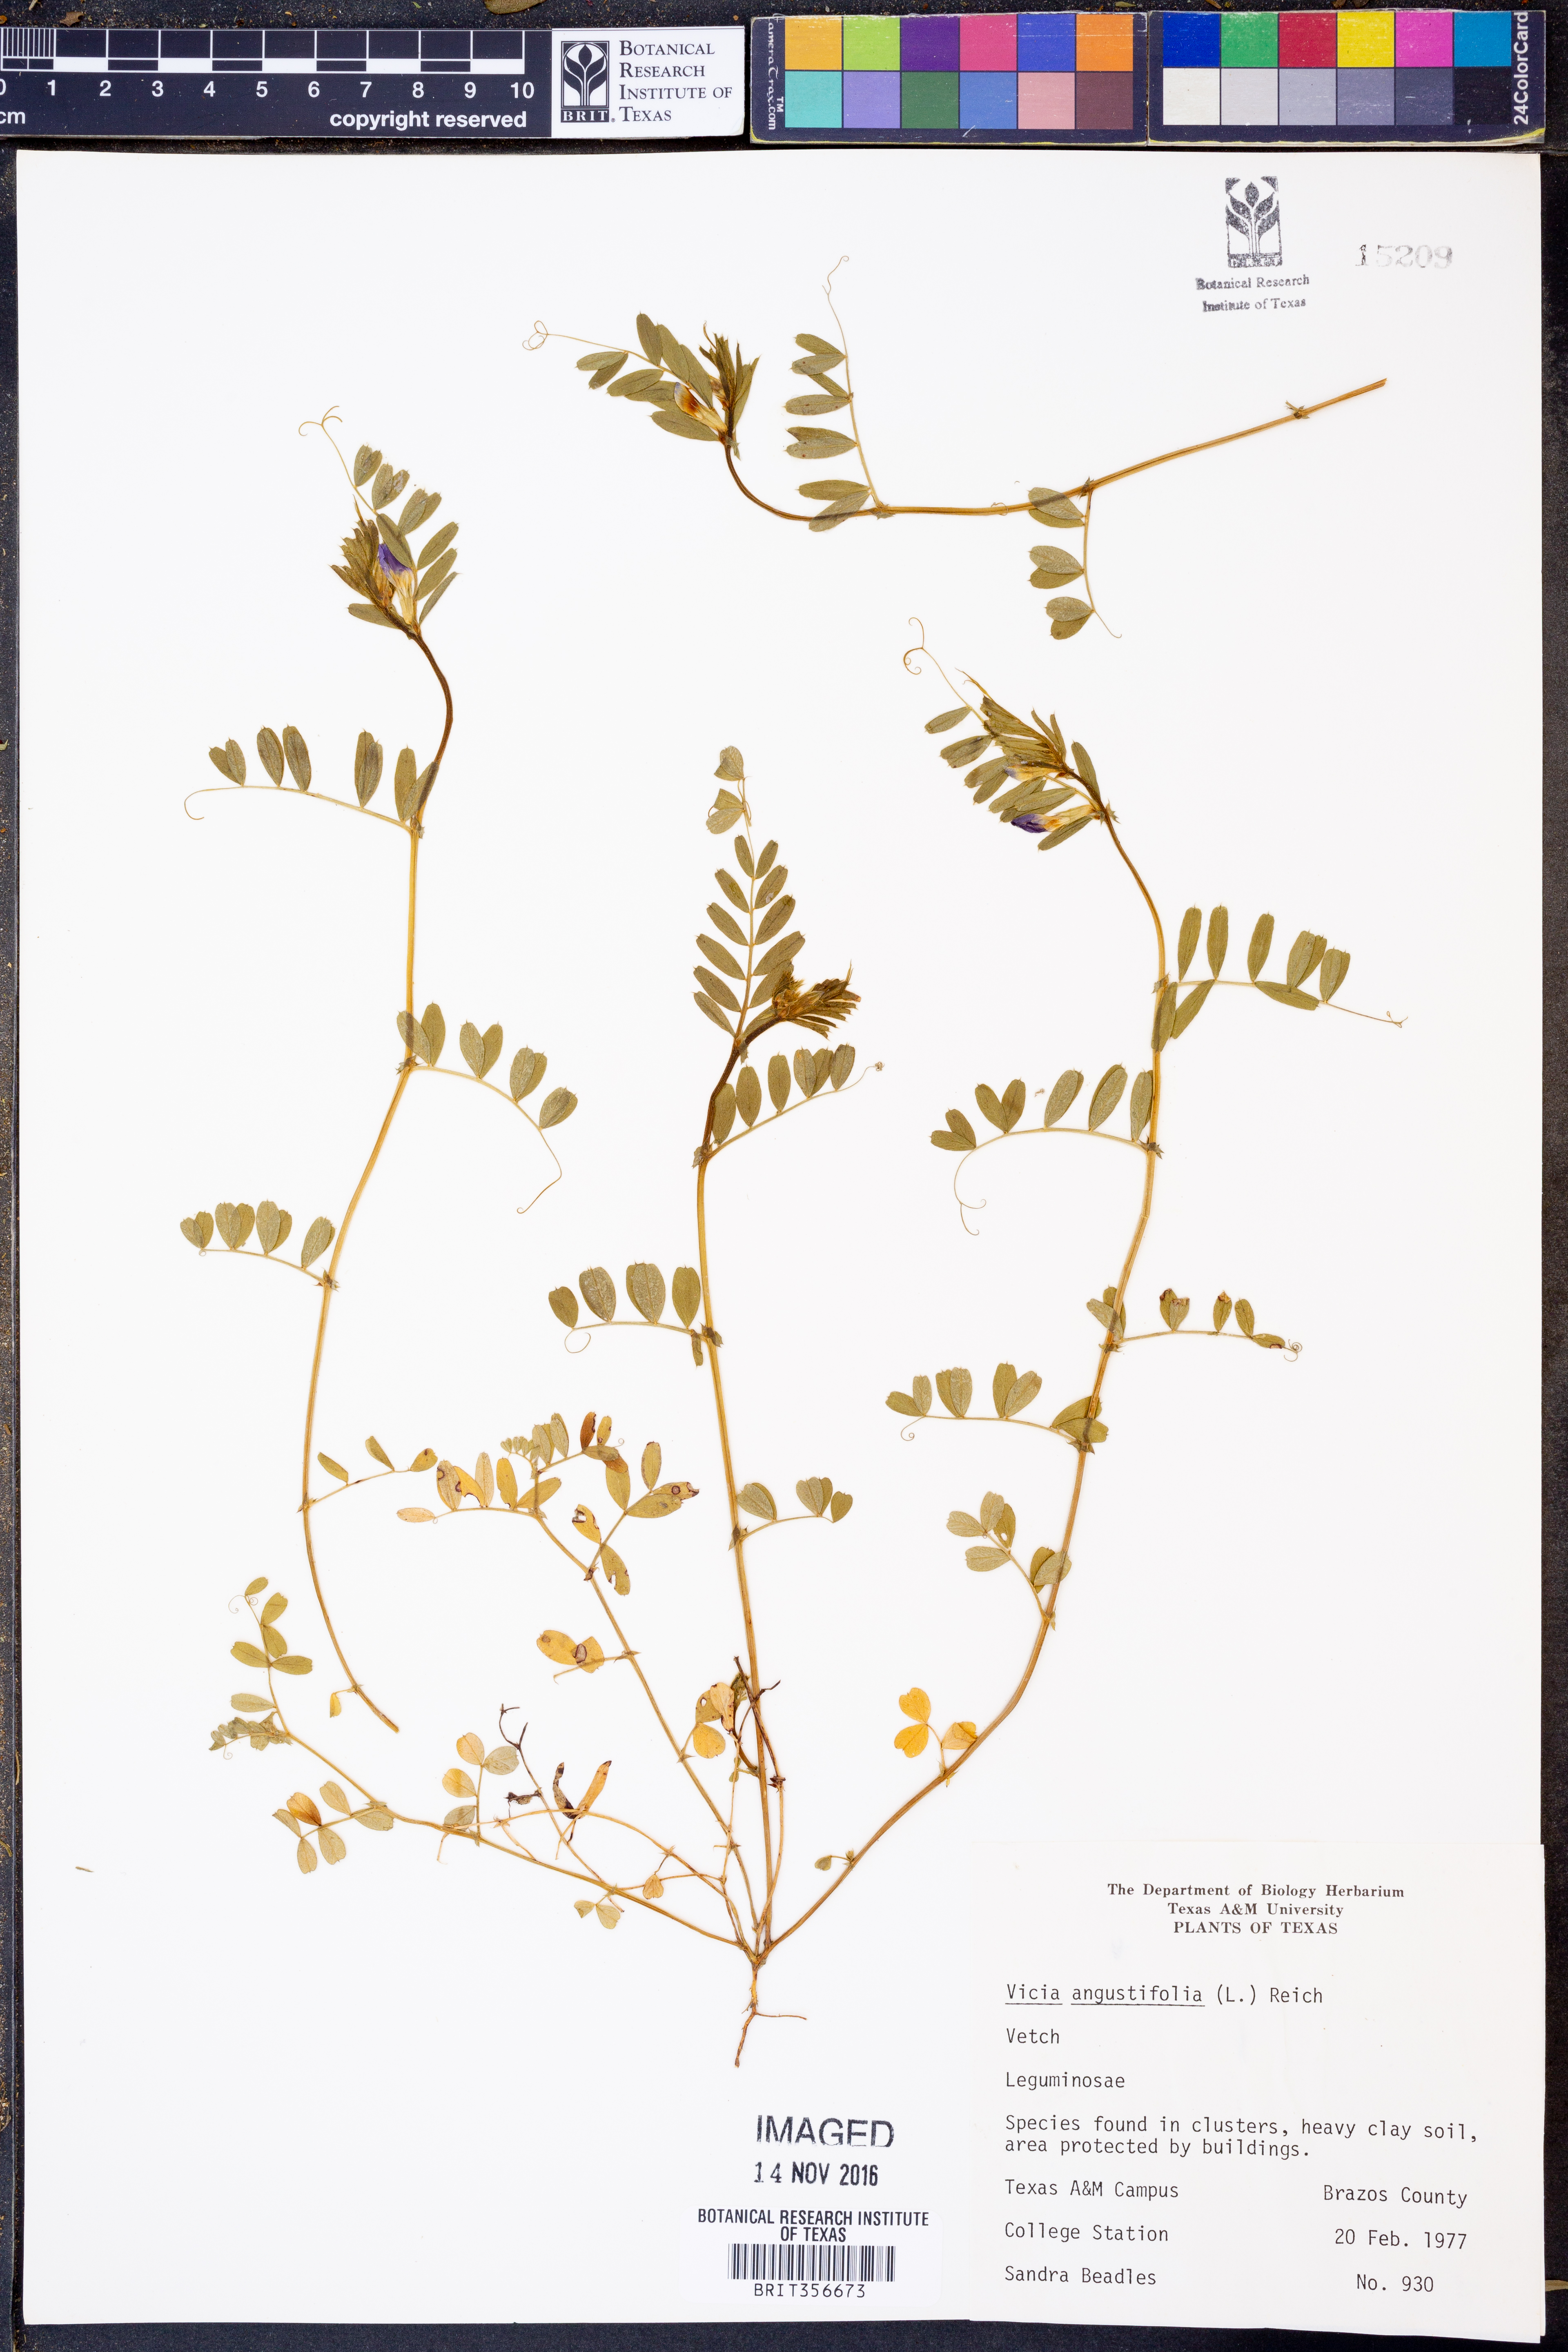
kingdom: Plantae
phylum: Tracheophyta
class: Magnoliopsida
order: Fabales
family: Fabaceae
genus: Vicia
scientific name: Vicia sativa
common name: Garden vetch
